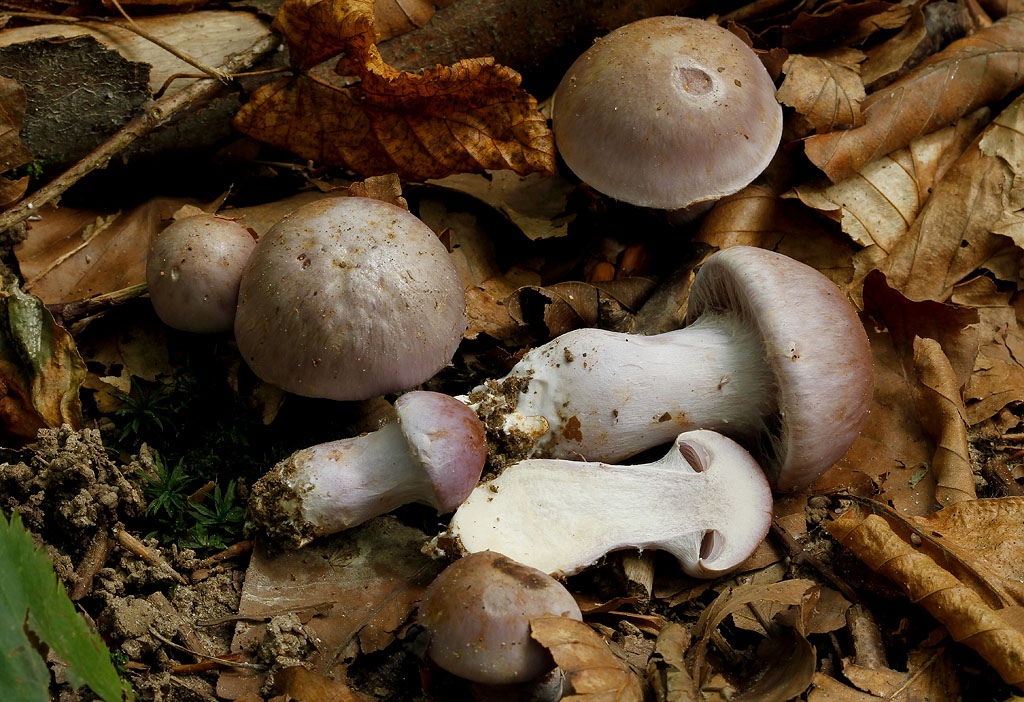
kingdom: Fungi
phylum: Basidiomycota
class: Agaricomycetes
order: Agaricales
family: Cortinariaceae
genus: Cortinarius
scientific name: Cortinarius largus
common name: violetrandet slørhat
